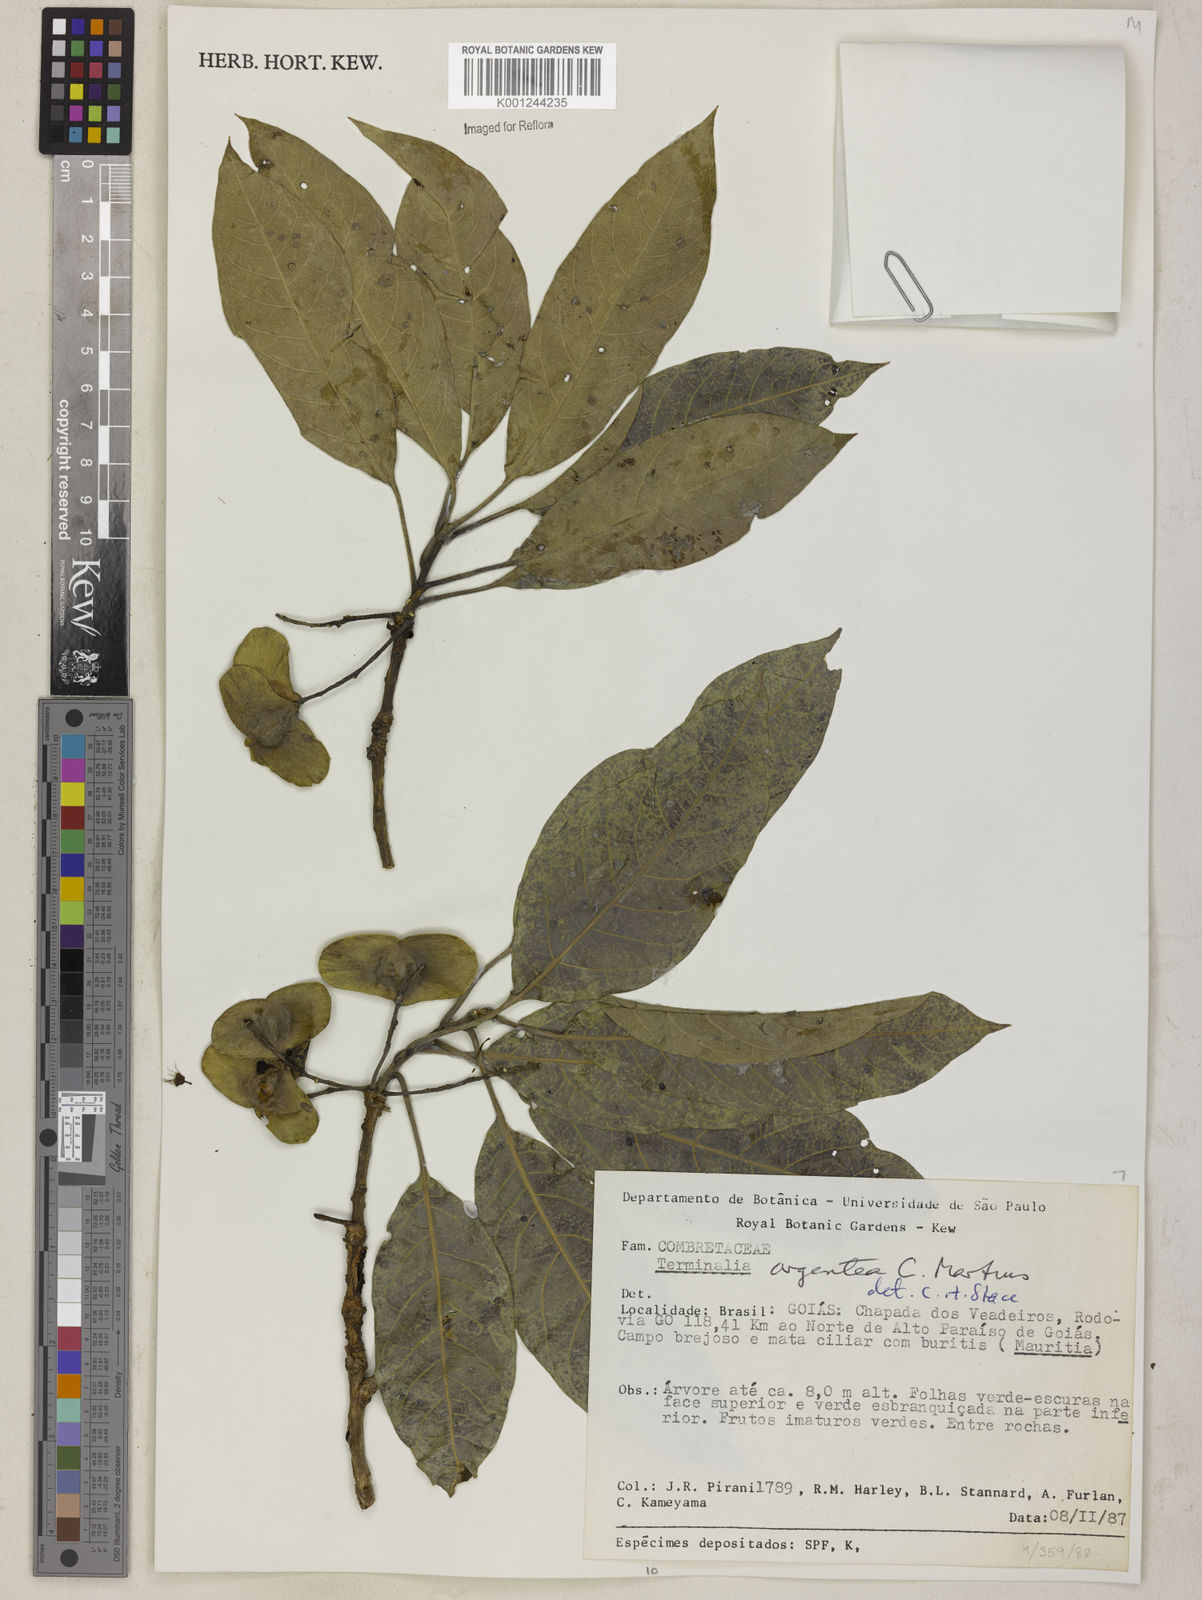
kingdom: Plantae
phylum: Tracheophyta
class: Magnoliopsida
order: Myrtales
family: Combretaceae
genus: Terminalia
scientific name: Terminalia argentea
